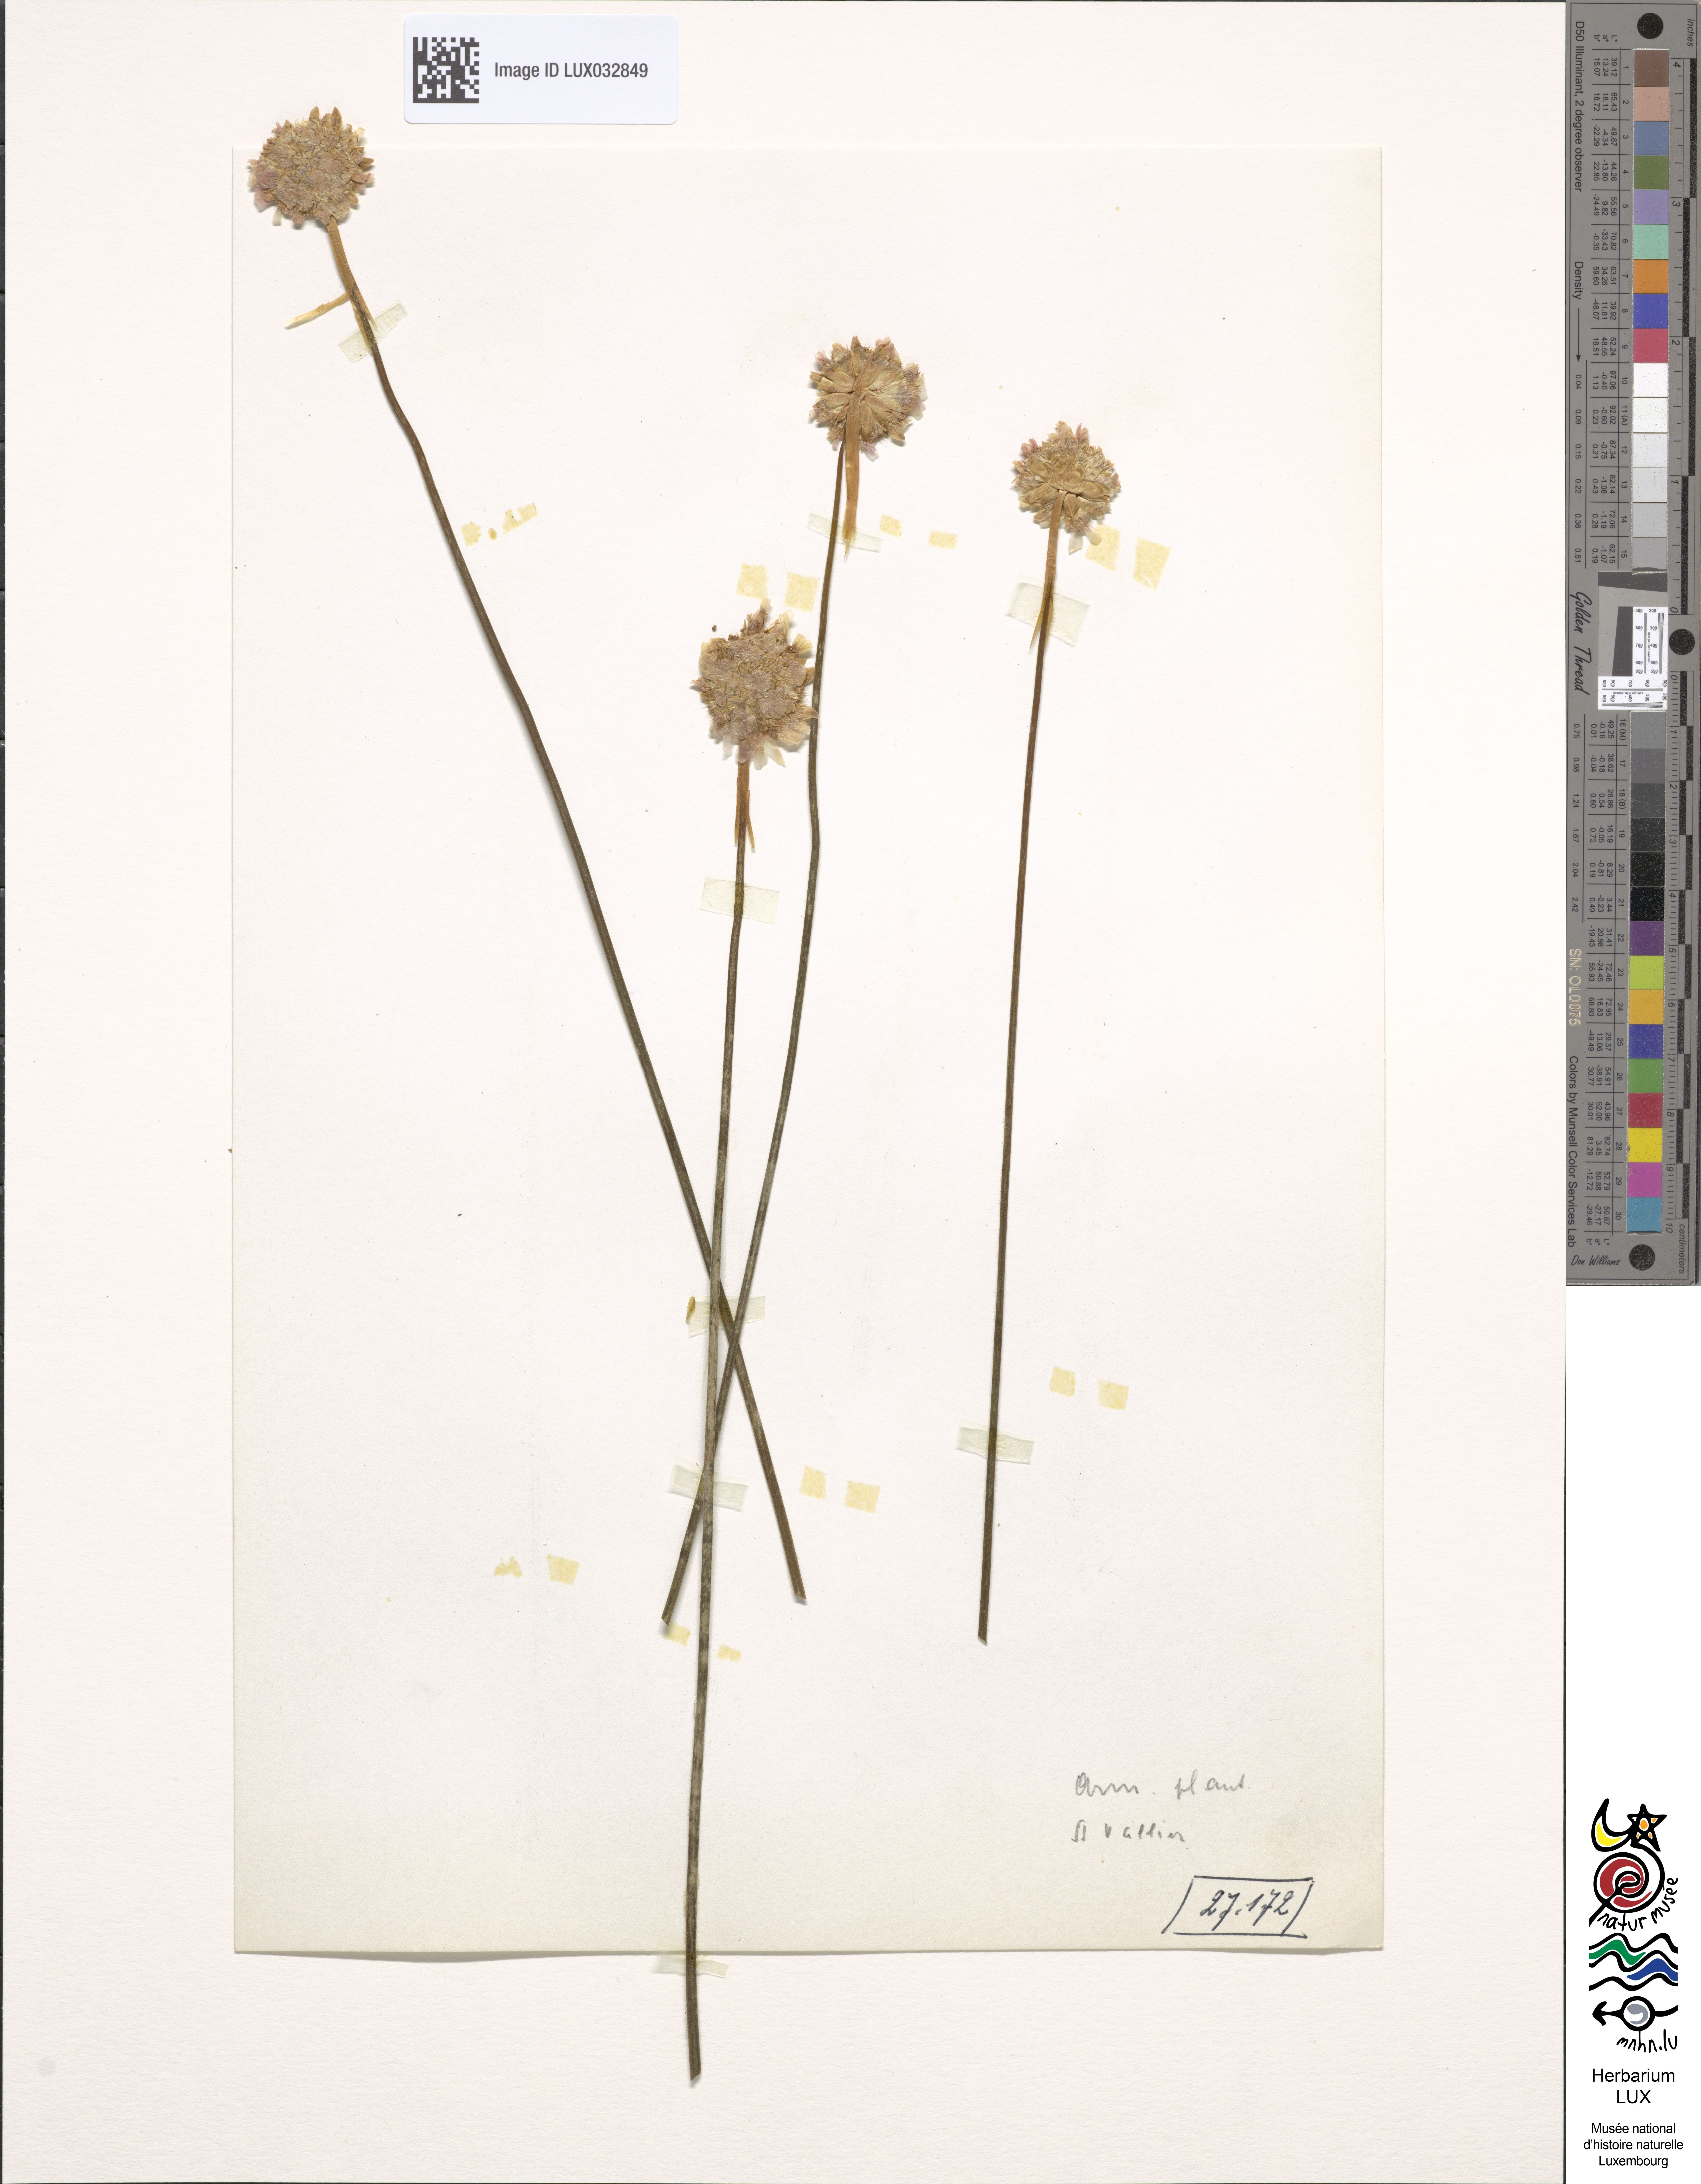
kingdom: Plantae
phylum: Tracheophyta
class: Magnoliopsida
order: Caryophyllales
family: Plumbaginaceae
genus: Armeria
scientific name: Armeria arenaria
